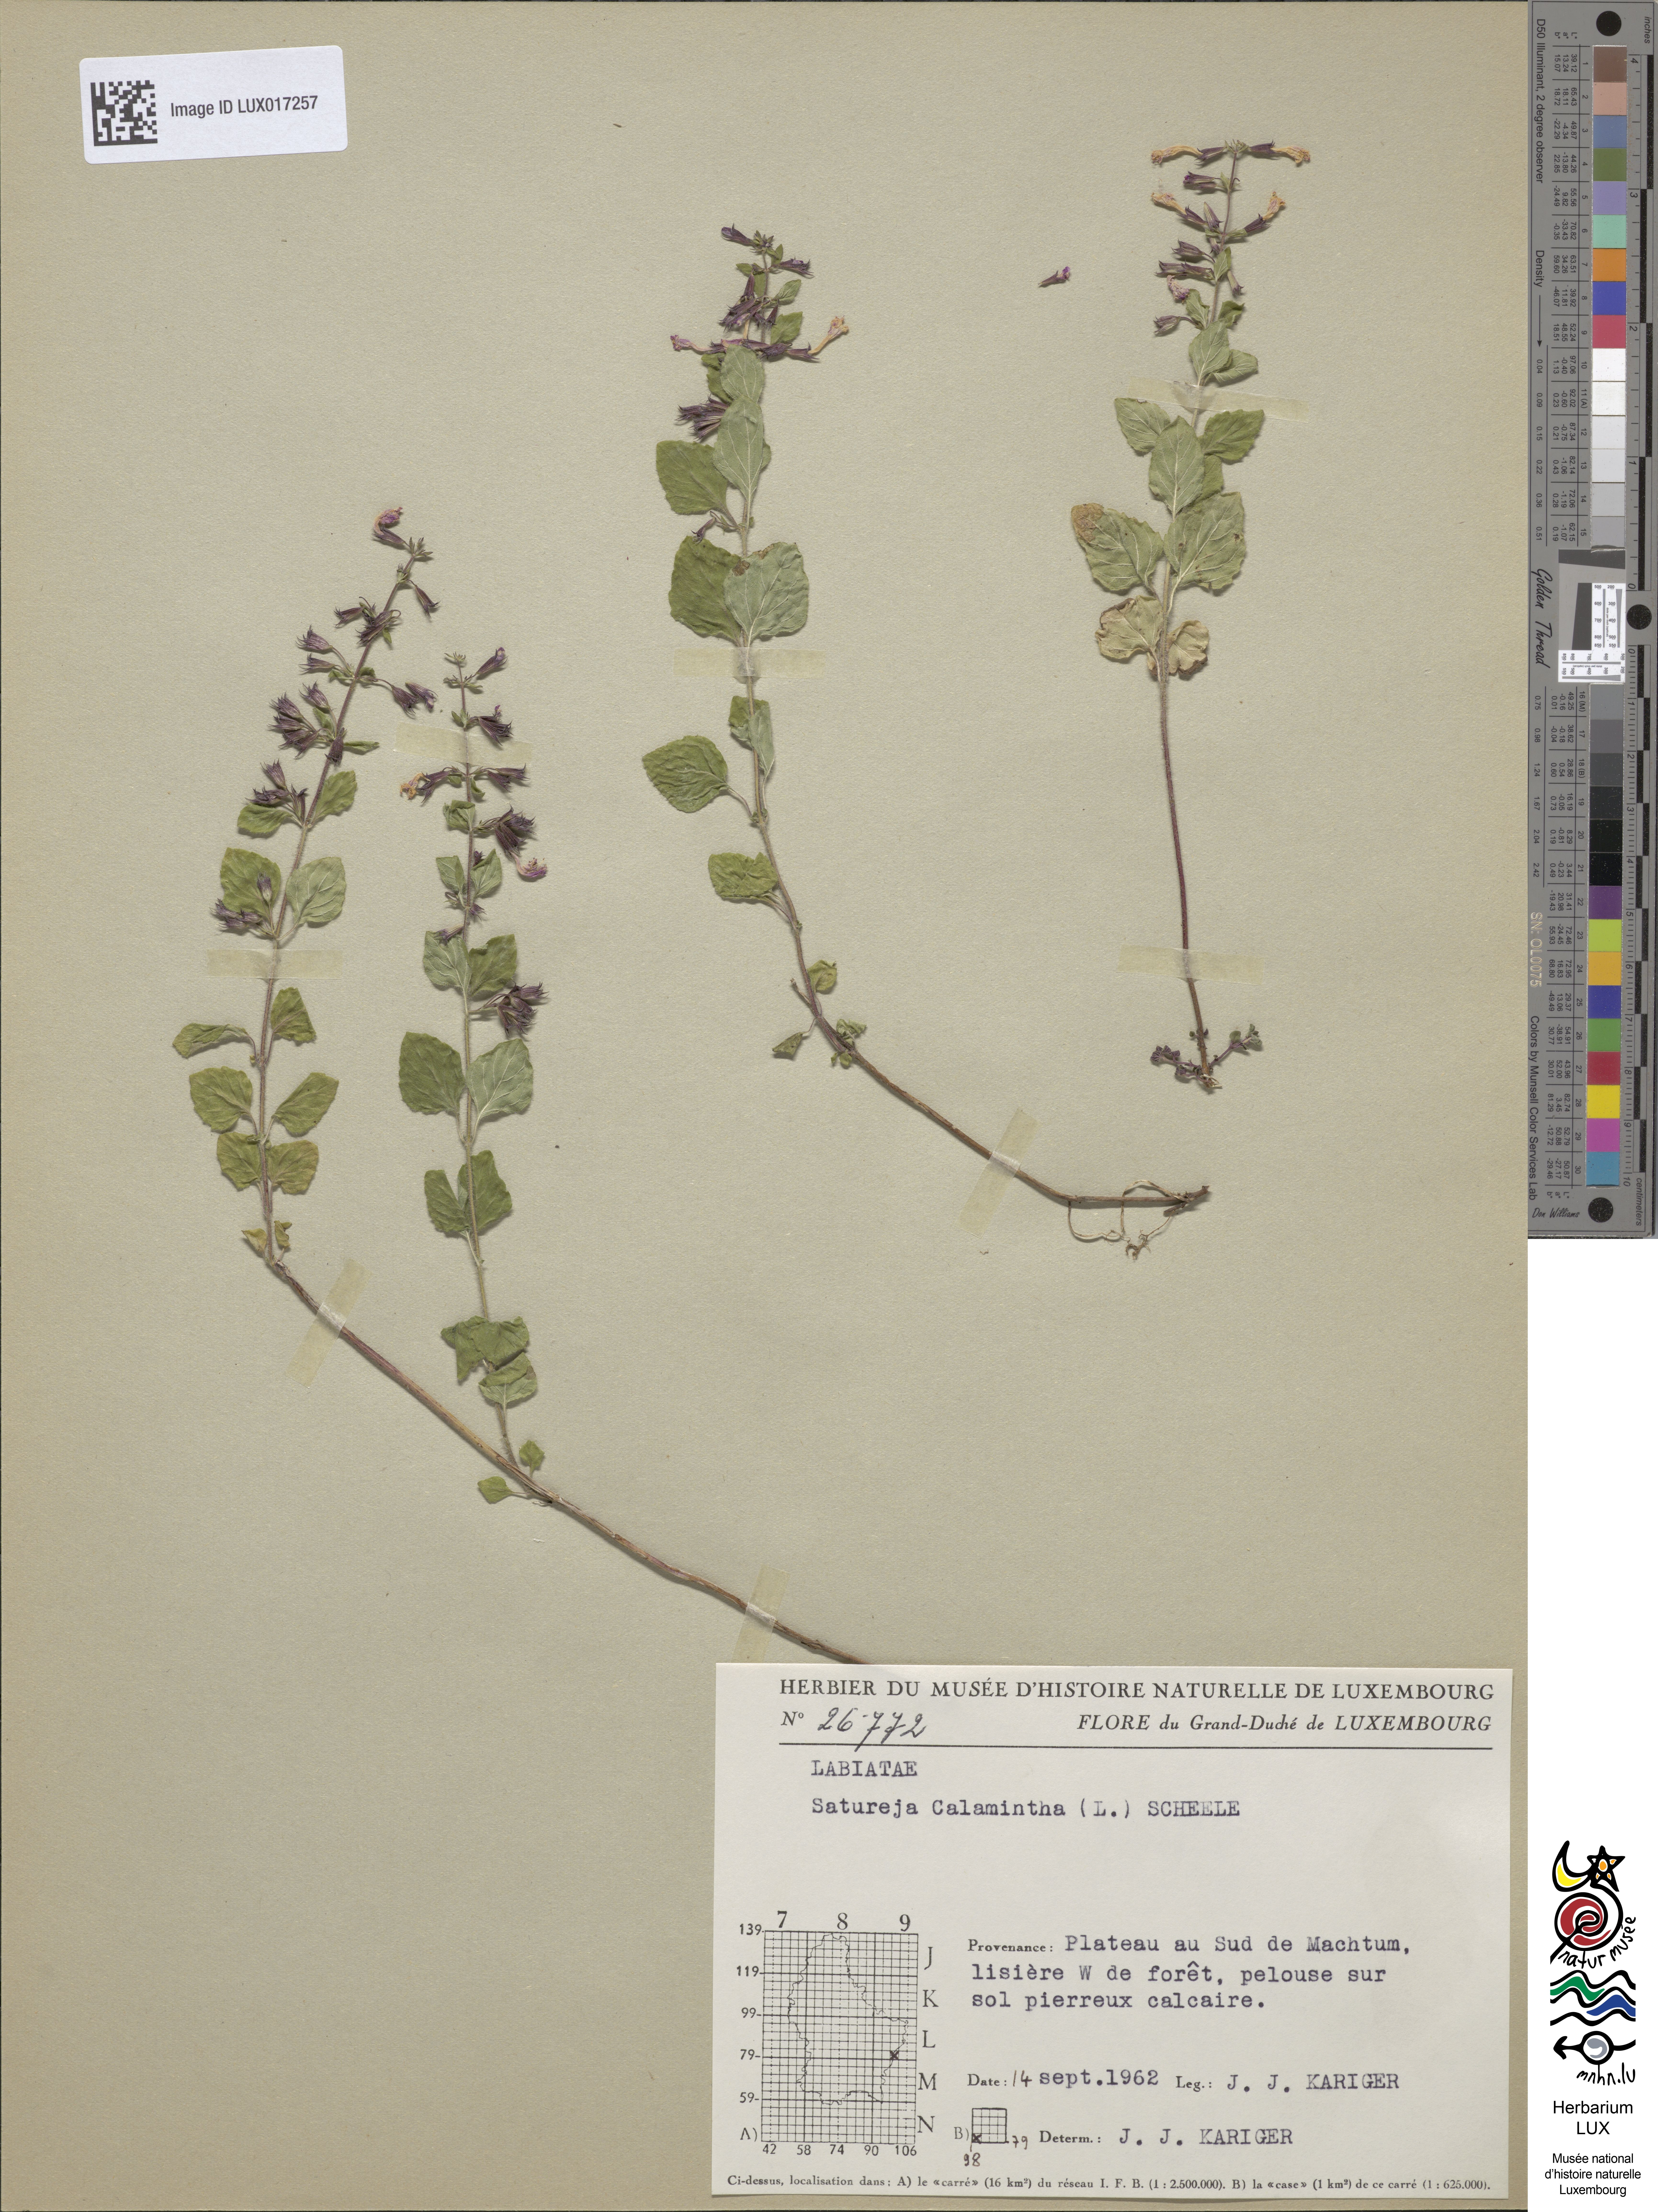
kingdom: Plantae
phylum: Tracheophyta
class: Magnoliopsida
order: Lamiales
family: Lamiaceae
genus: Clinopodium
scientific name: Clinopodium nepeta
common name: Lesser calamint
